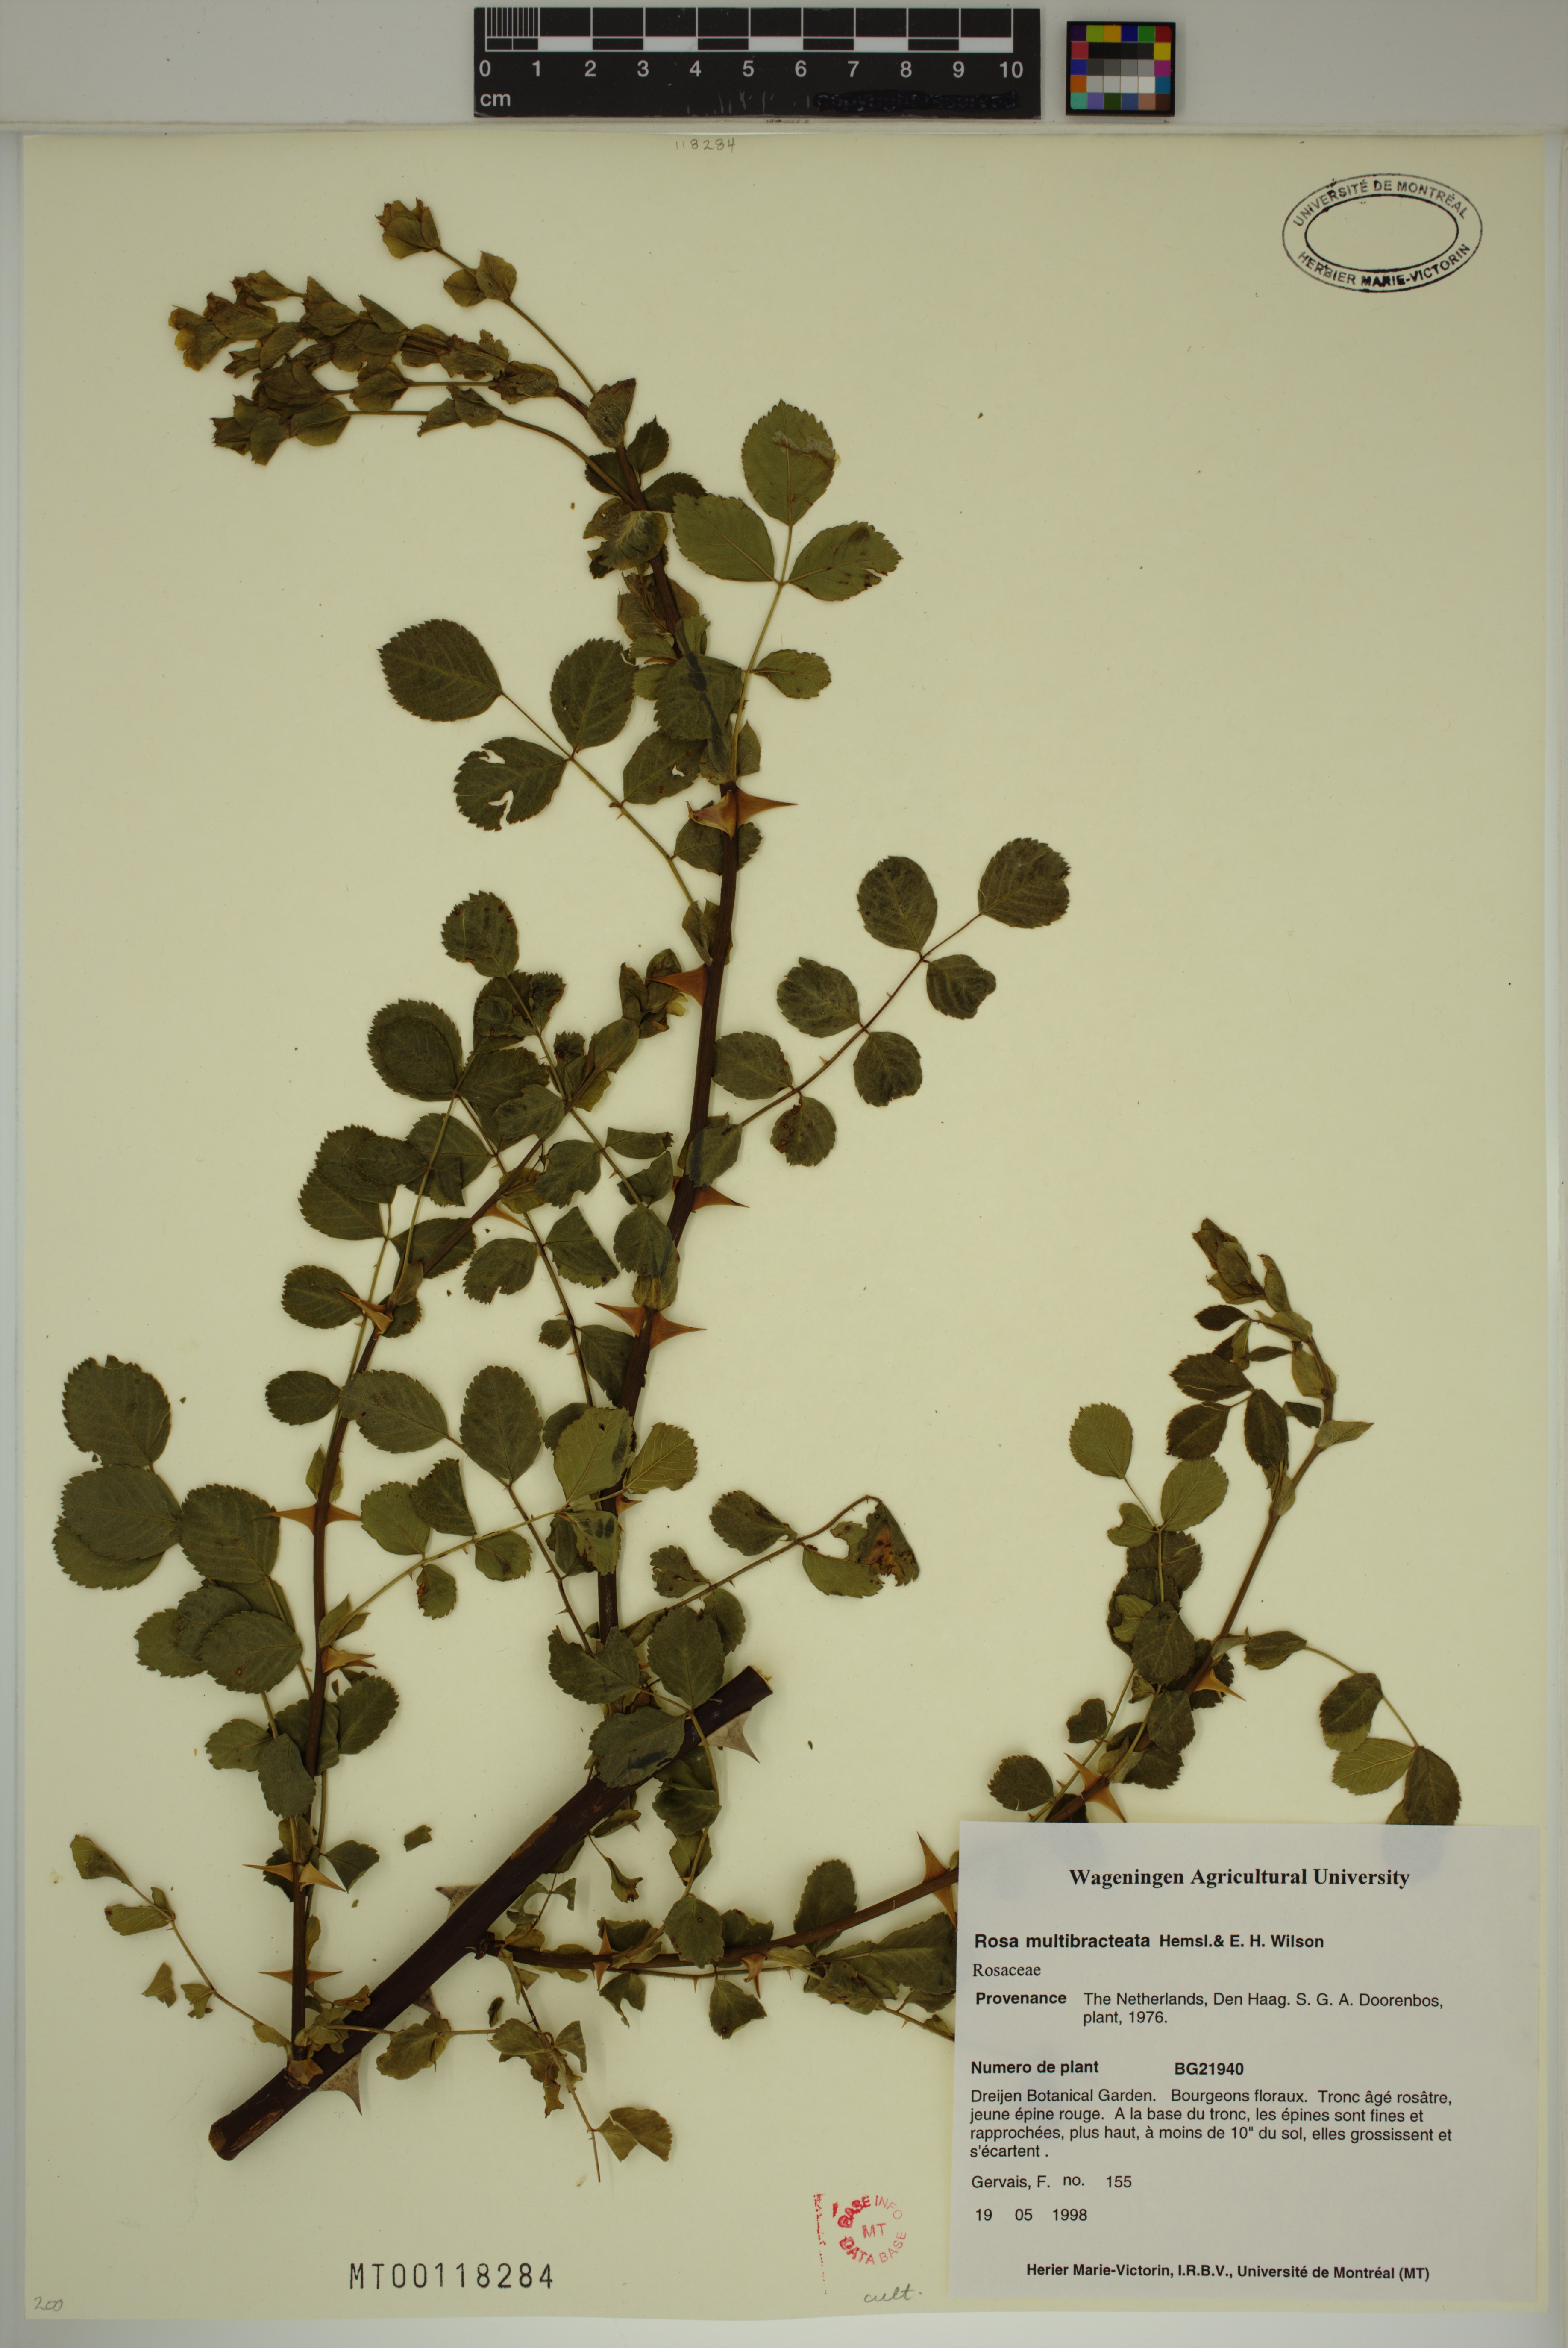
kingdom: Plantae
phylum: Tracheophyta
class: Magnoliopsida
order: Rosales
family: Rosaceae
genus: Rosa
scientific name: Rosa multibracteata
